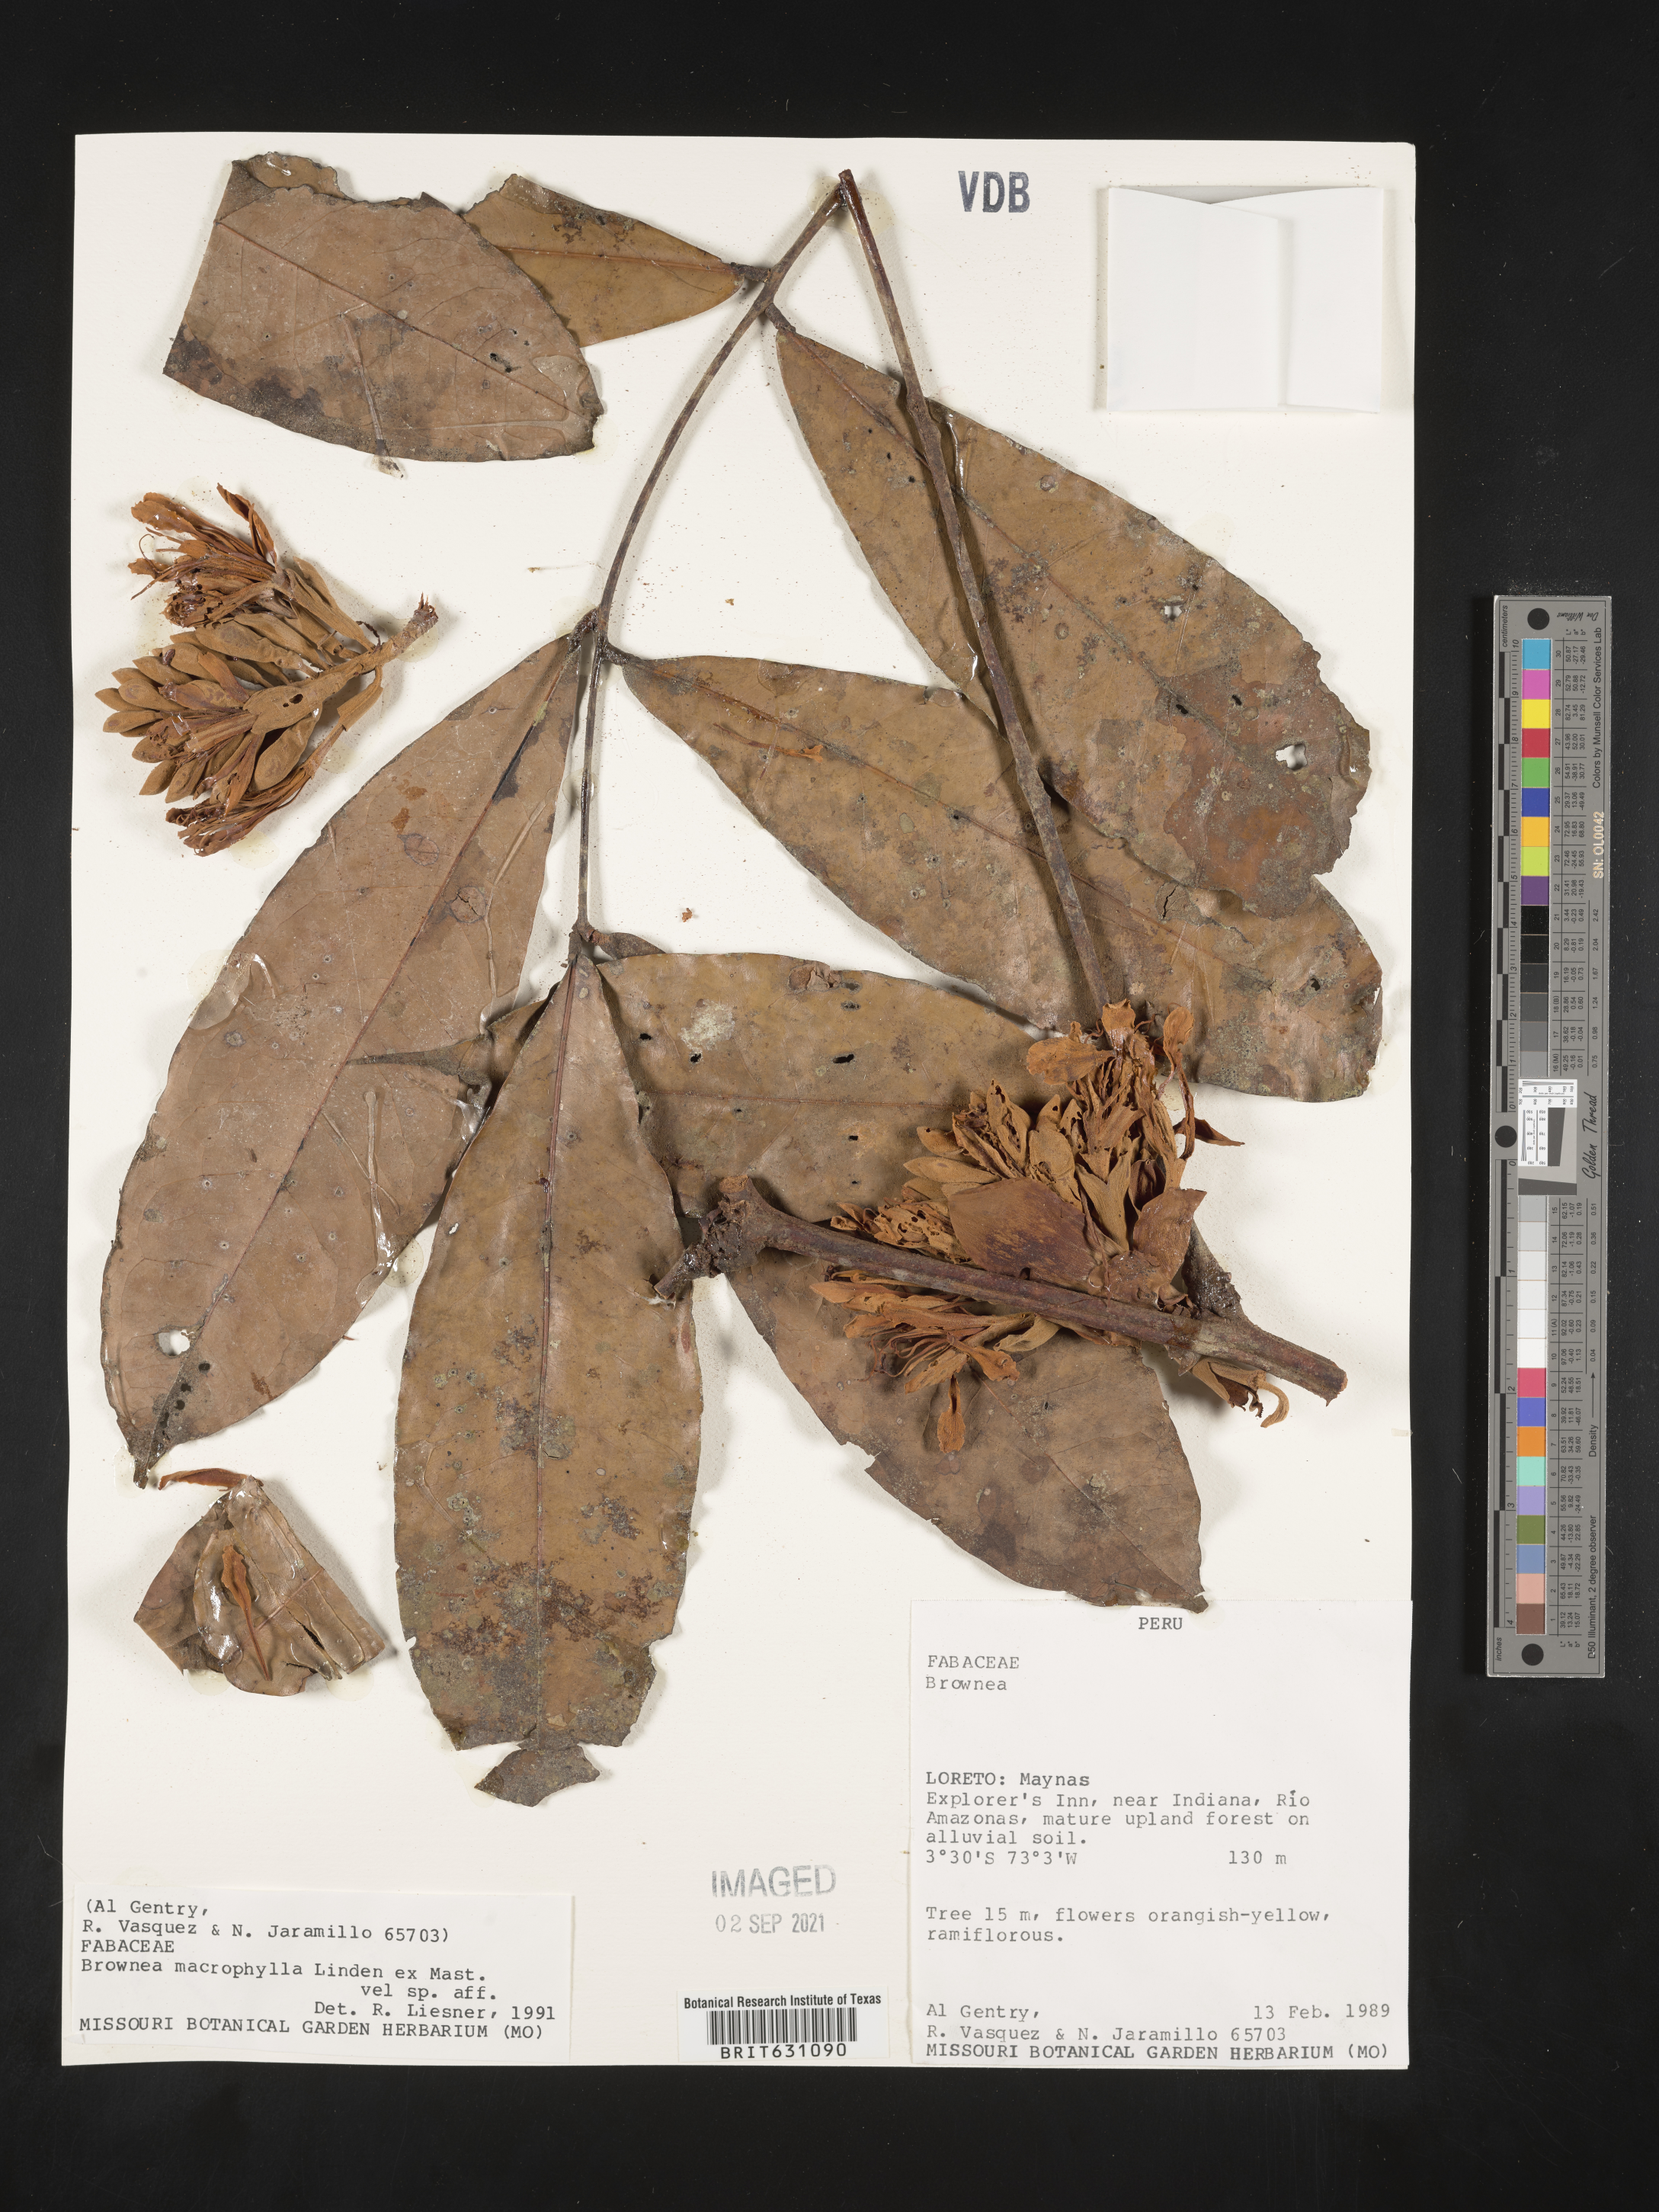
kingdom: Plantae
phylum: Tracheophyta
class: Magnoliopsida
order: Fabales
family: Fabaceae
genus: Brownea
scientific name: Brownea
